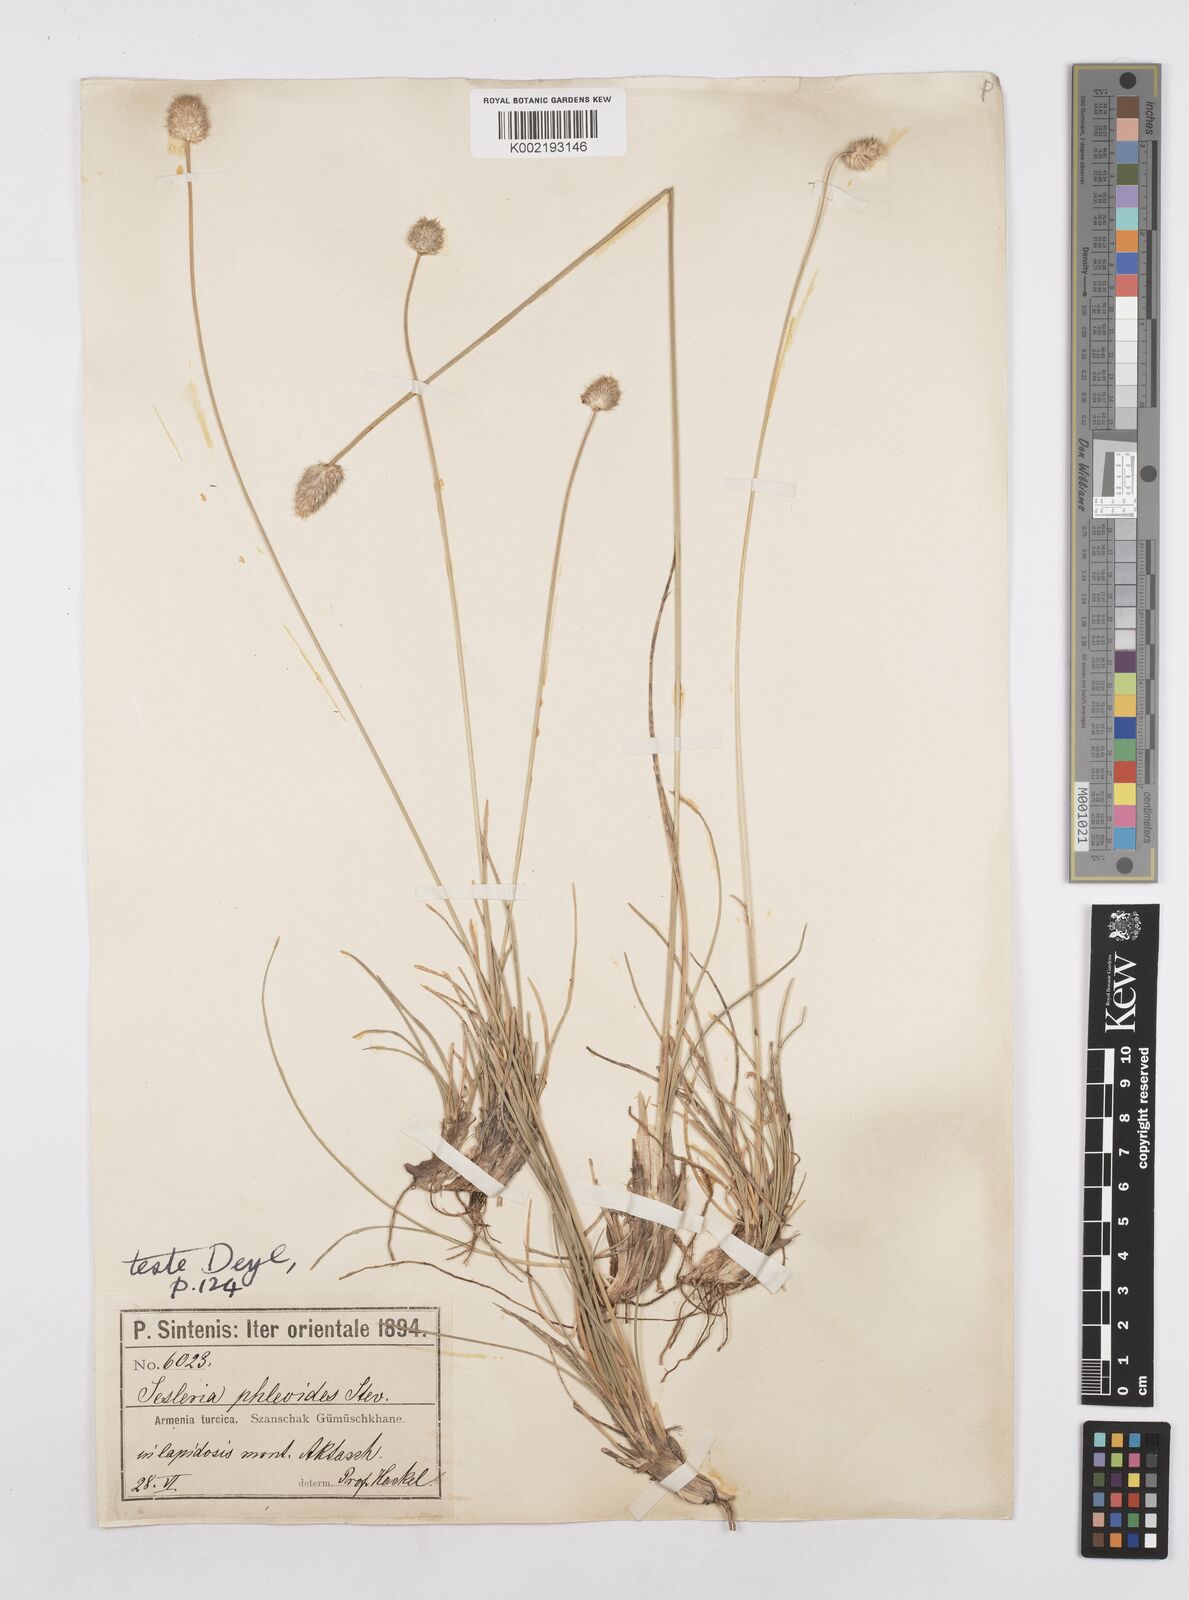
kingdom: Plantae
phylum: Tracheophyta
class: Liliopsida
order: Poales
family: Poaceae
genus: Sesleria
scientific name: Sesleria phleoides
